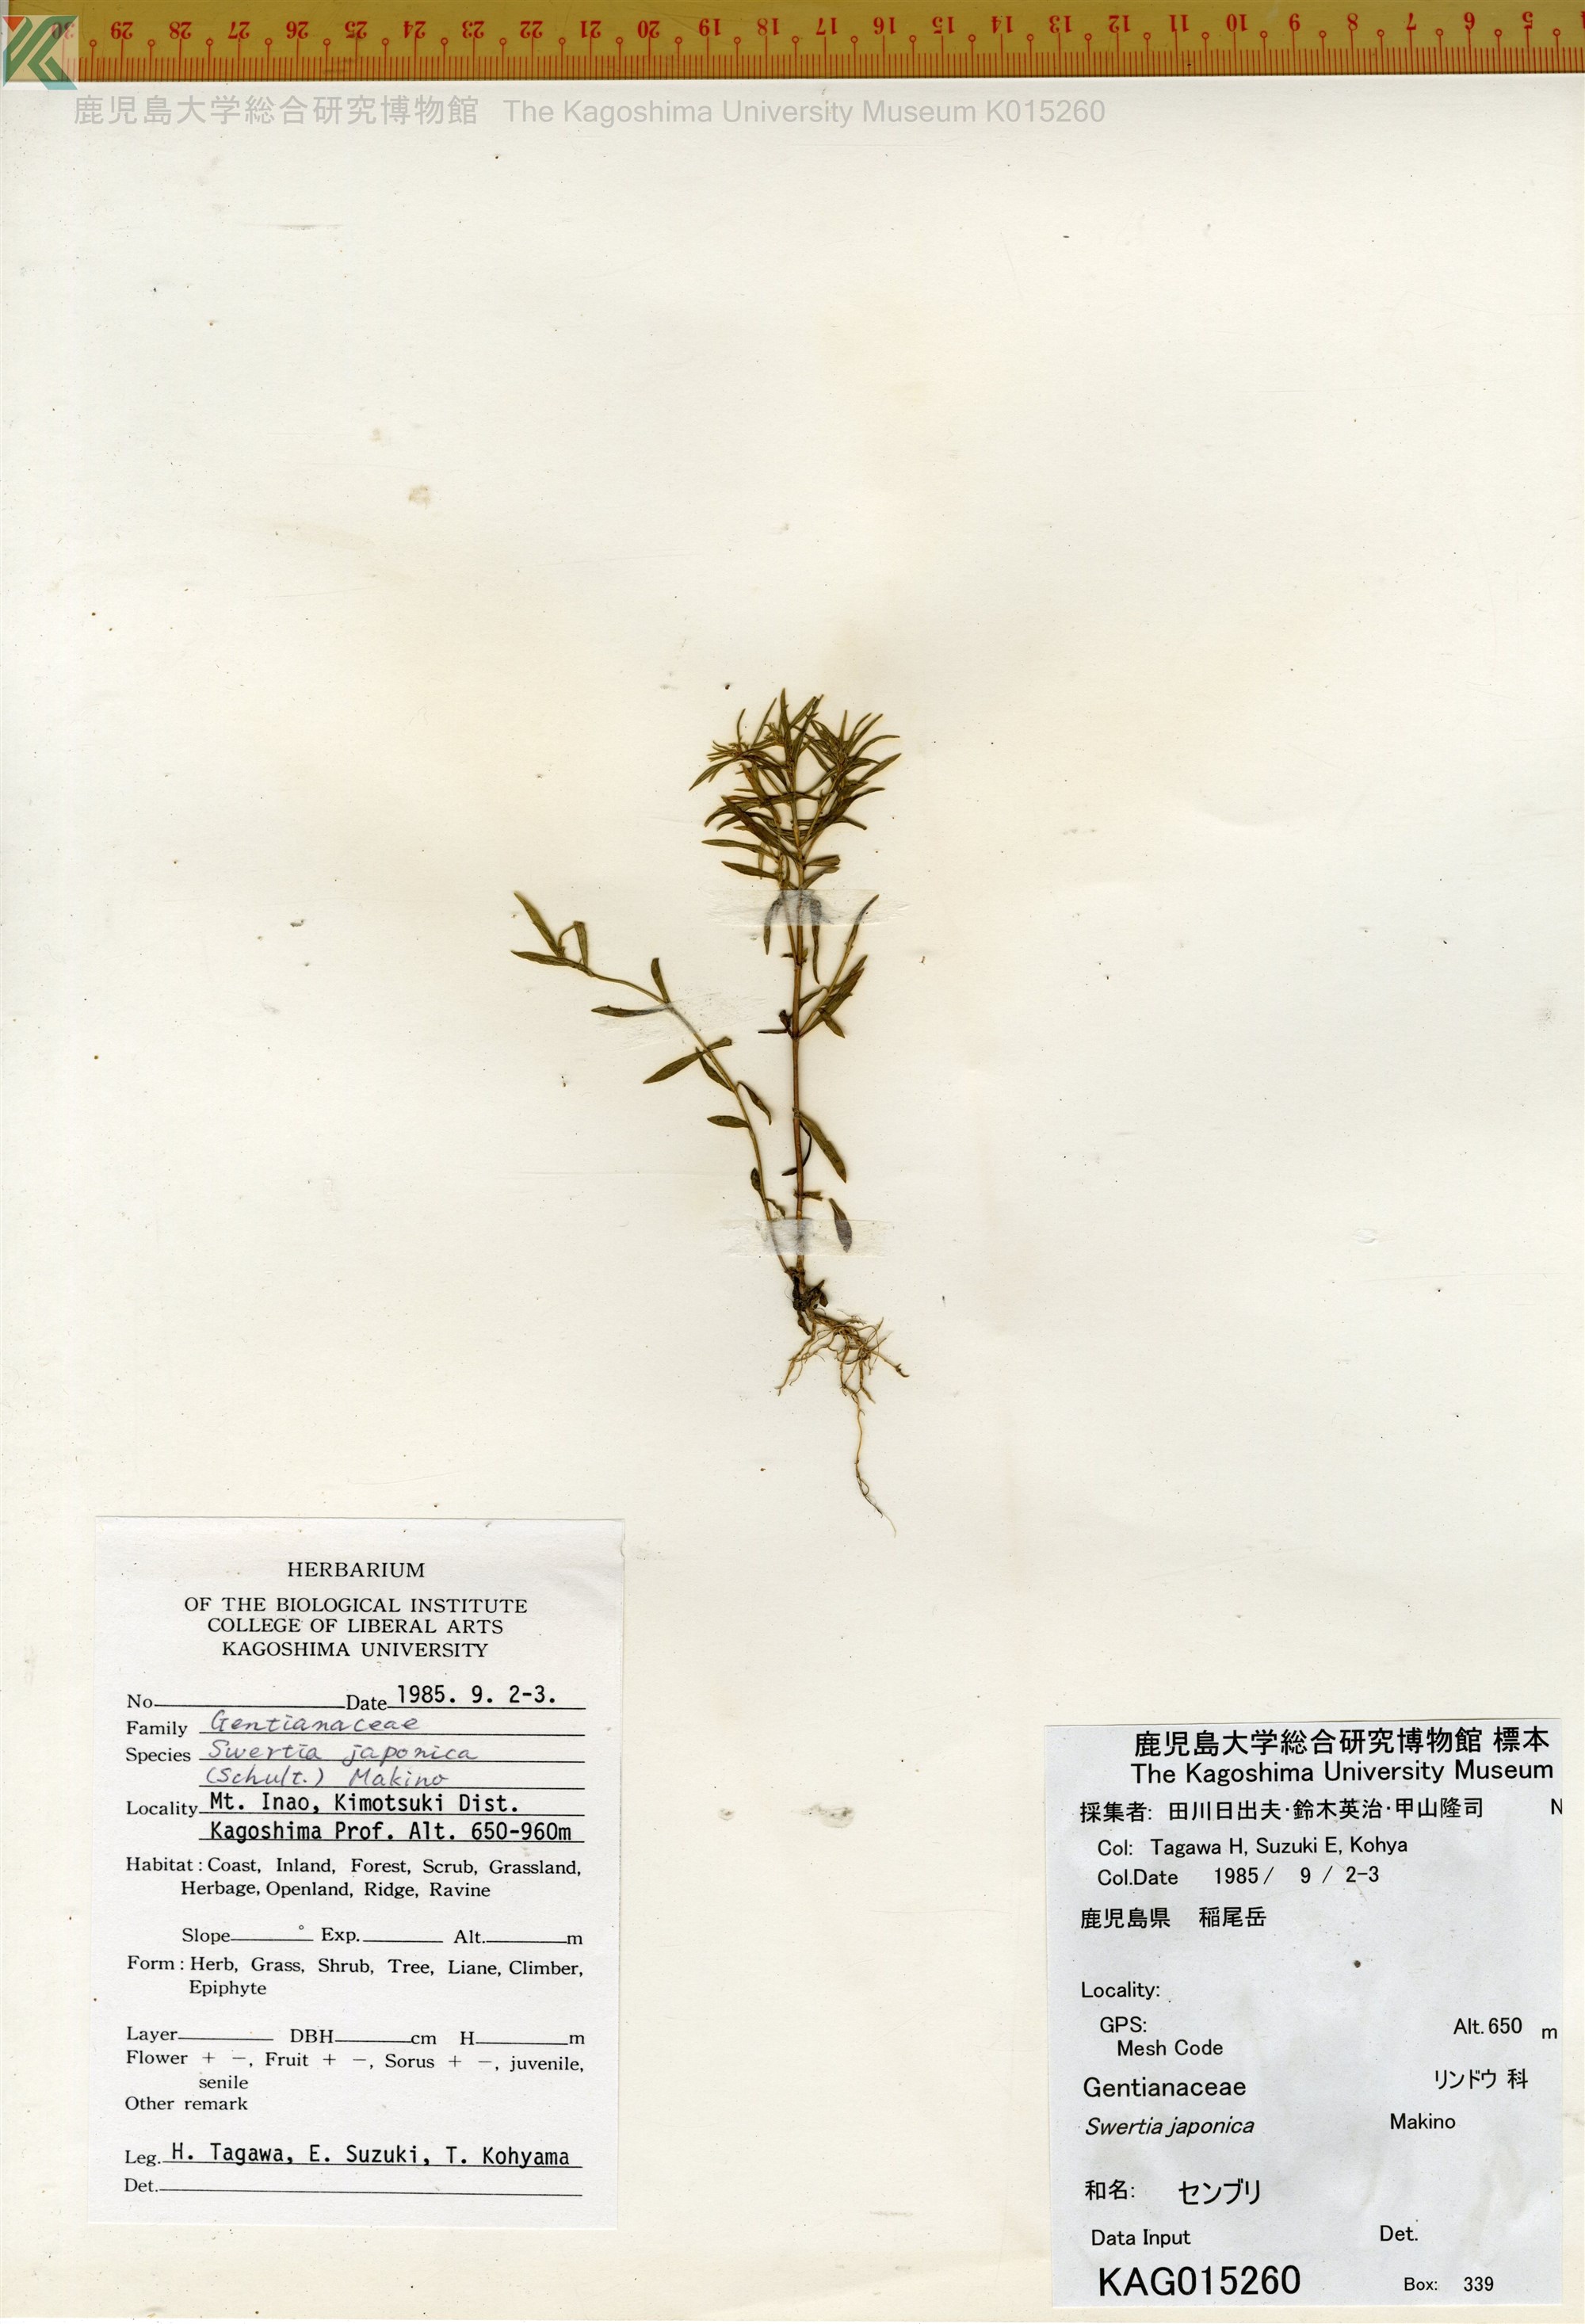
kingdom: Plantae
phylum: Tracheophyta
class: Magnoliopsida
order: Gentianales
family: Gentianaceae
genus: Swertia
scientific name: Swertia japonica
